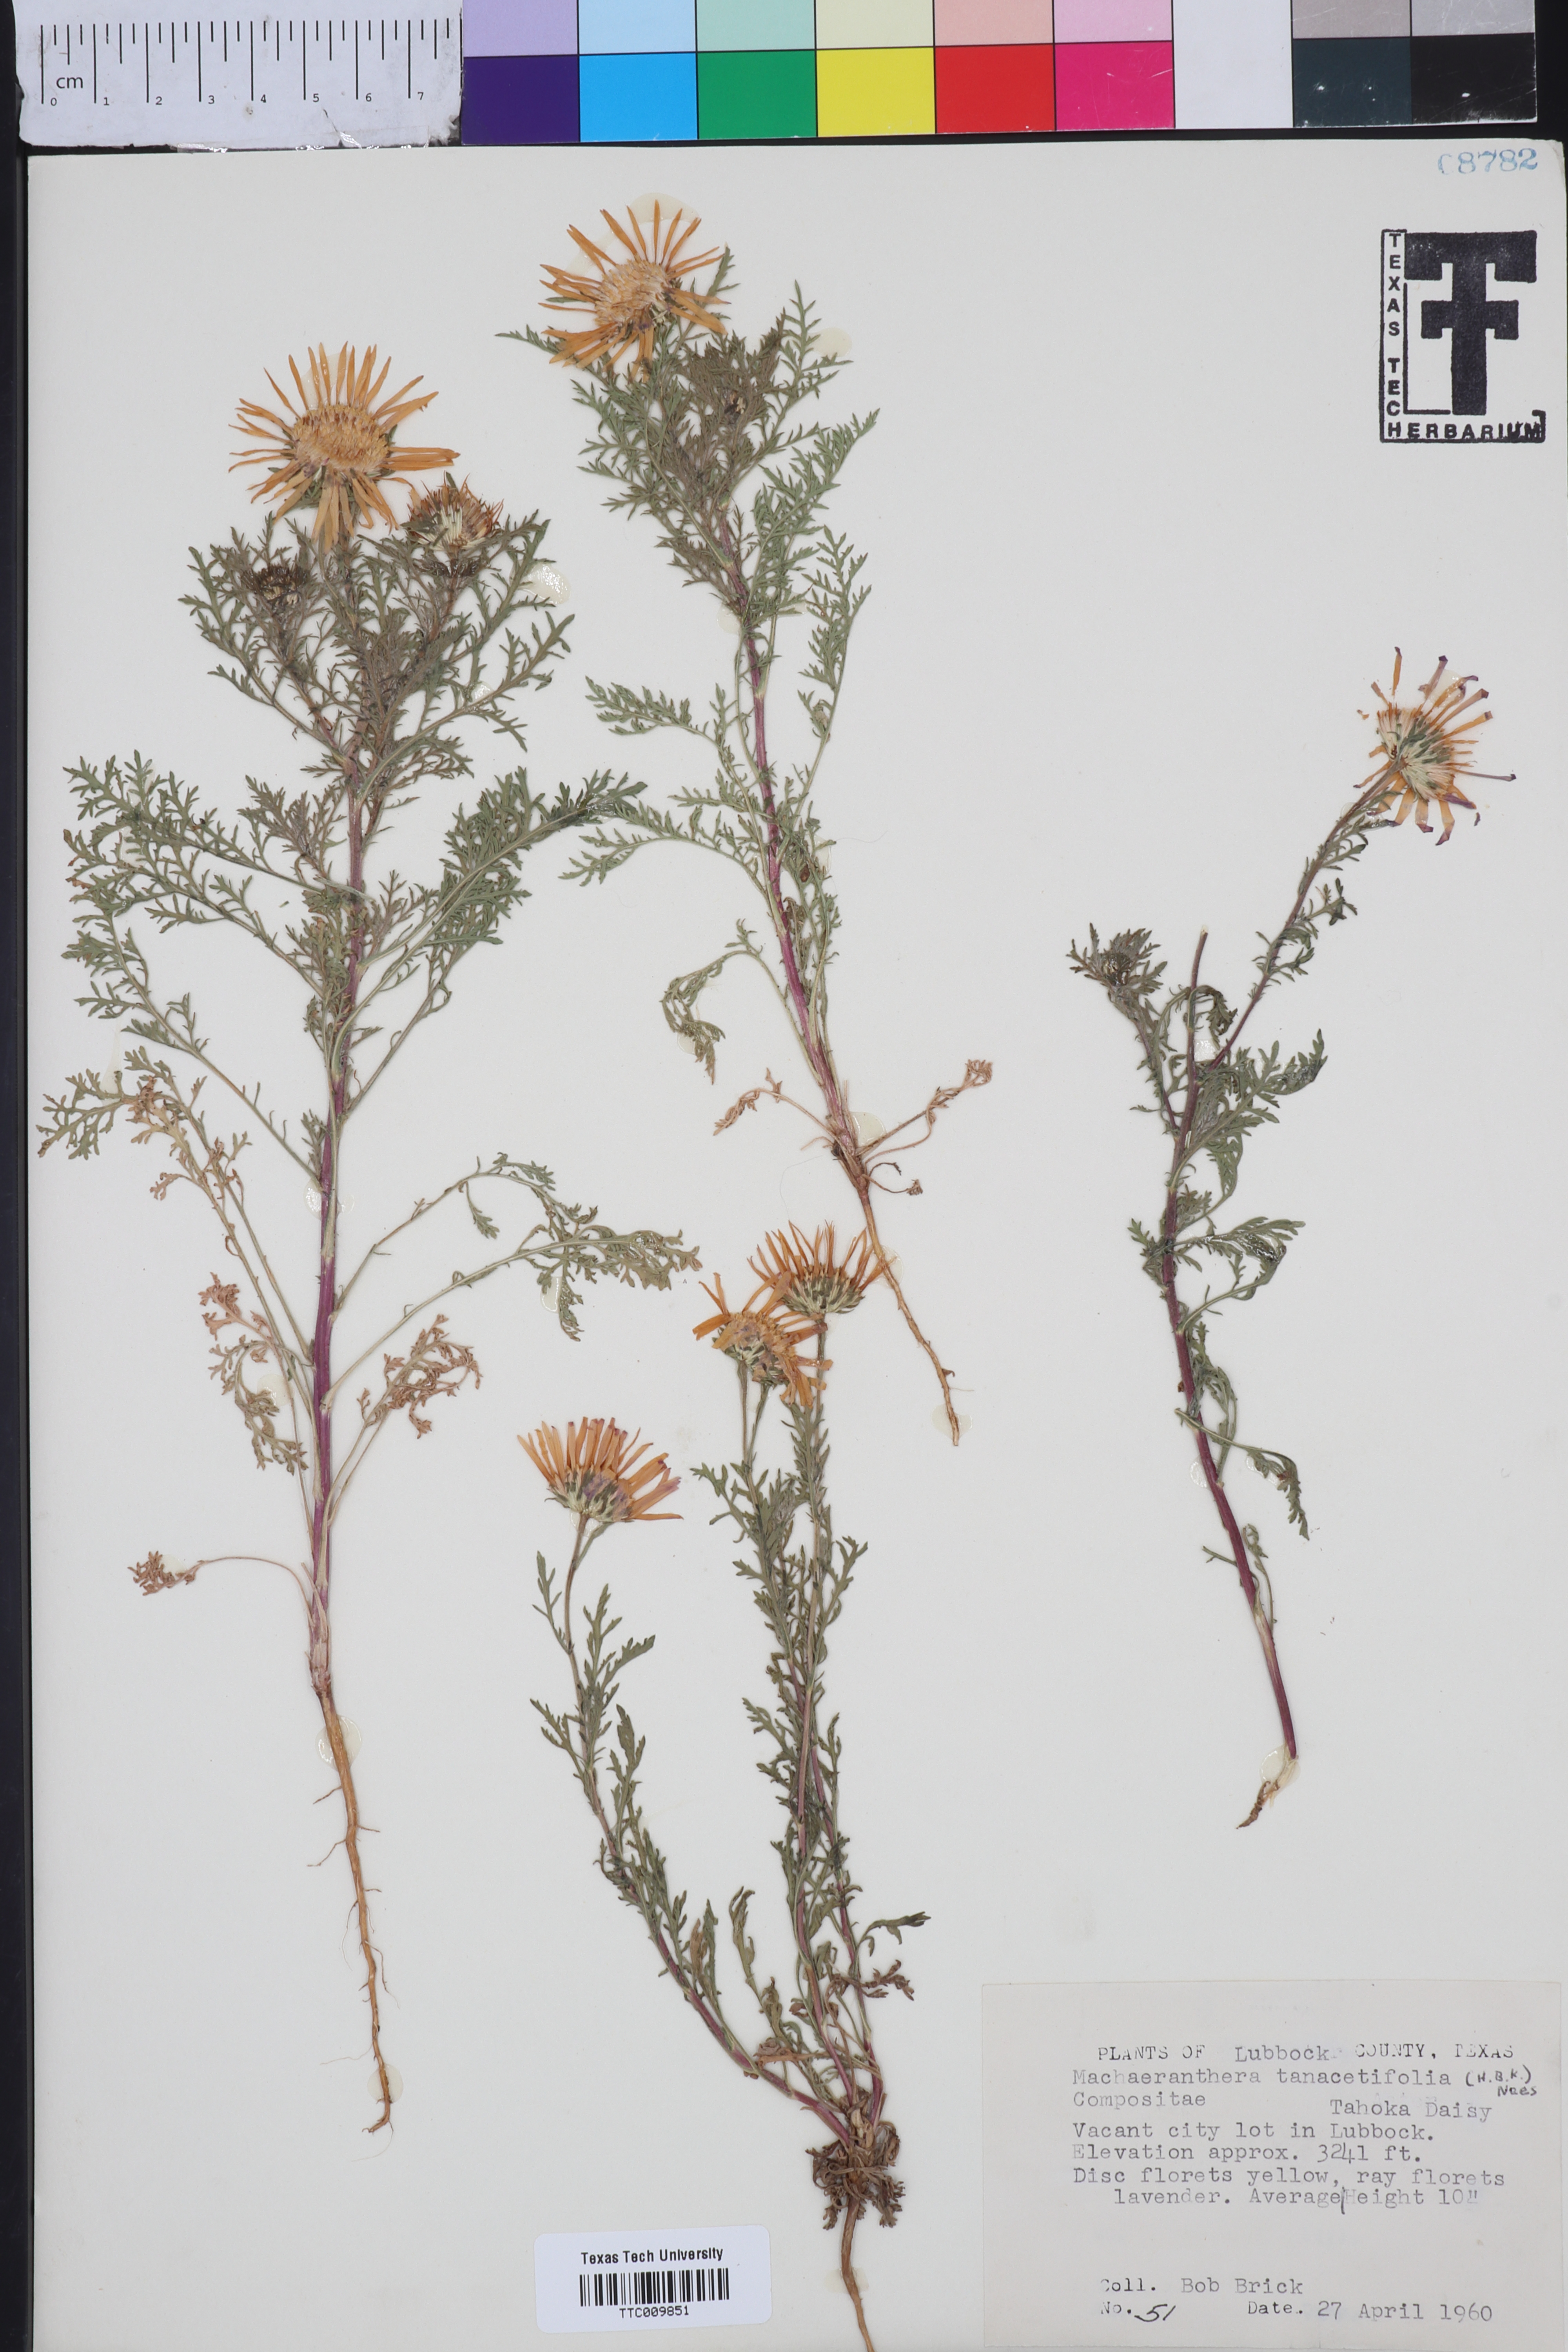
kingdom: Plantae
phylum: Tracheophyta
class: Magnoliopsida
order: Asterales
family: Asteraceae
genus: Machaeranthera
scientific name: Machaeranthera tanacetifolia
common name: Tansy-aster
